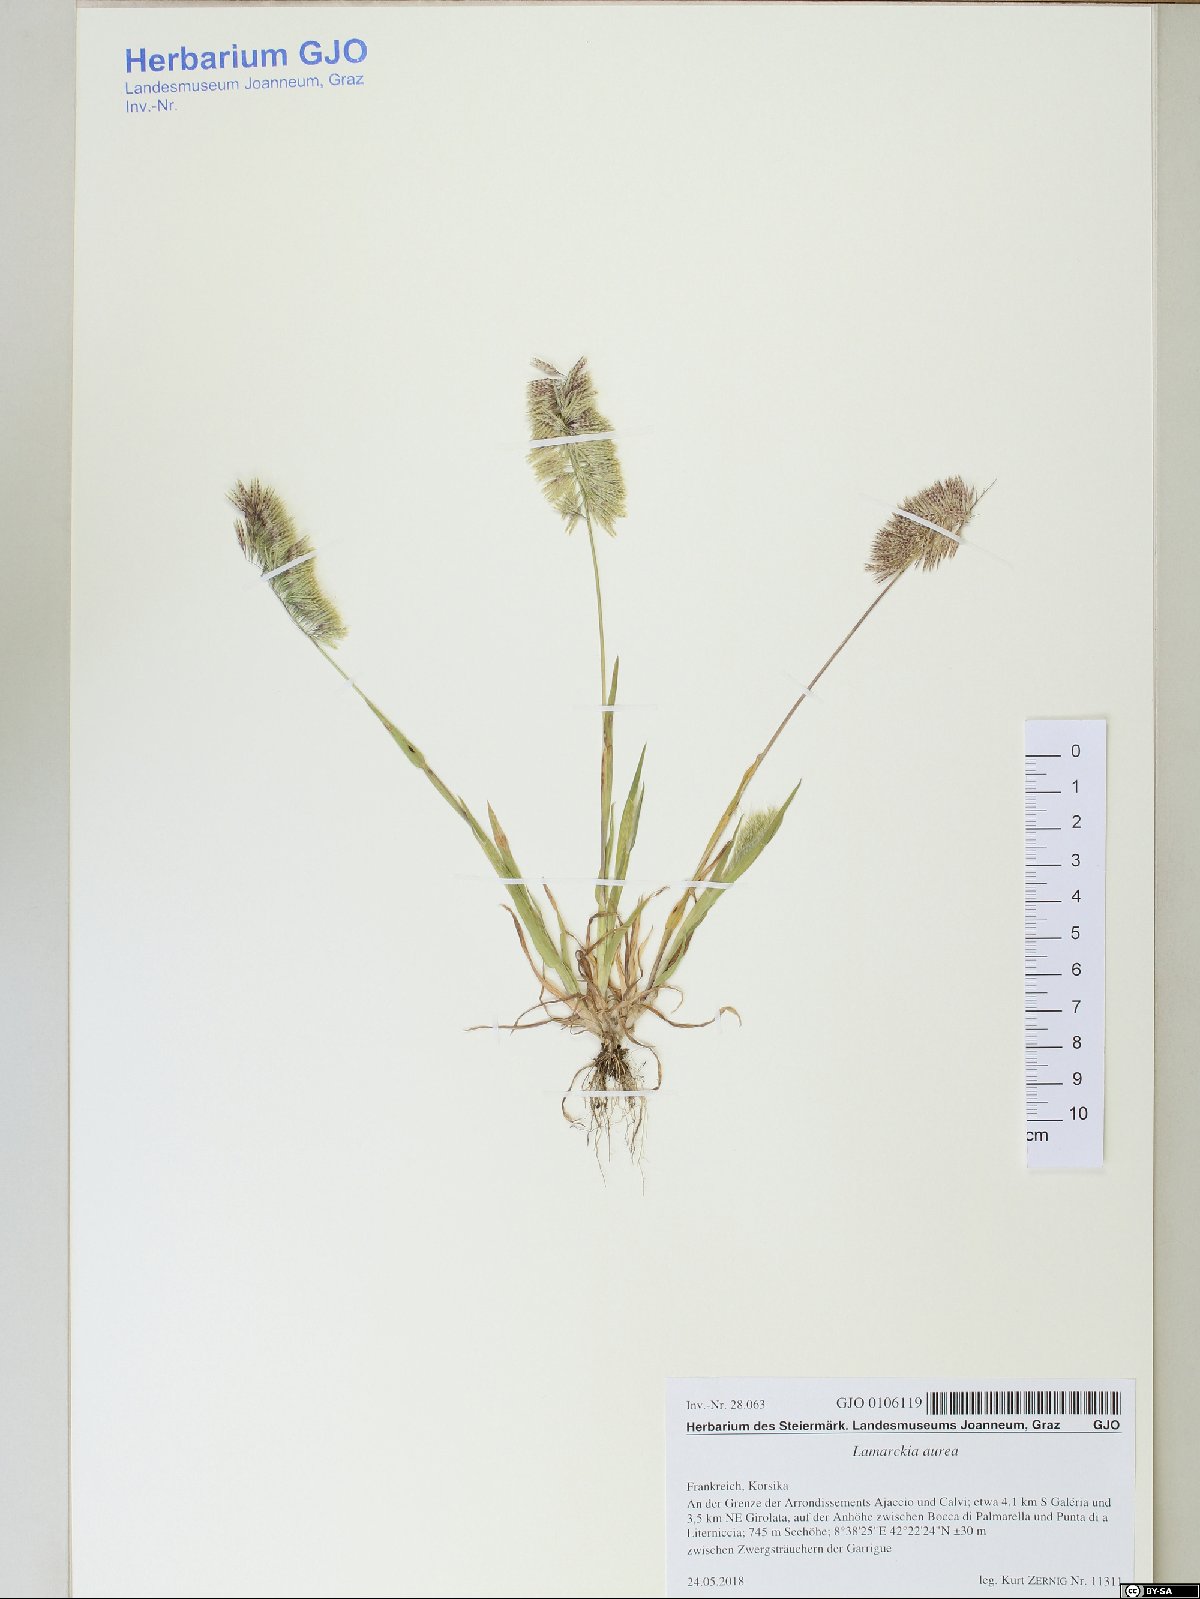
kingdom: Plantae
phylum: Tracheophyta
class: Liliopsida
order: Poales
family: Poaceae
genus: Lamarckia
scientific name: Lamarckia aurea
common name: Golden dog's-tail
